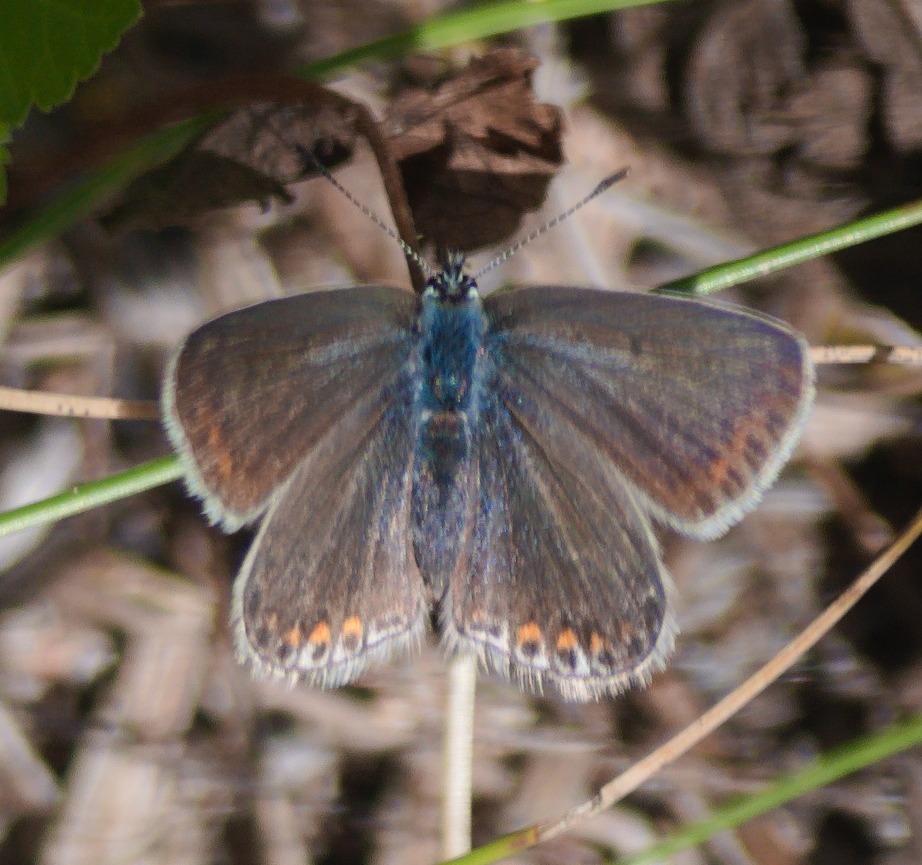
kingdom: Animalia
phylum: Arthropoda
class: Insecta
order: Lepidoptera
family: Lycaenidae
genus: Polyommatus
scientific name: Polyommatus icarus
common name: Almindelig blåfugl
